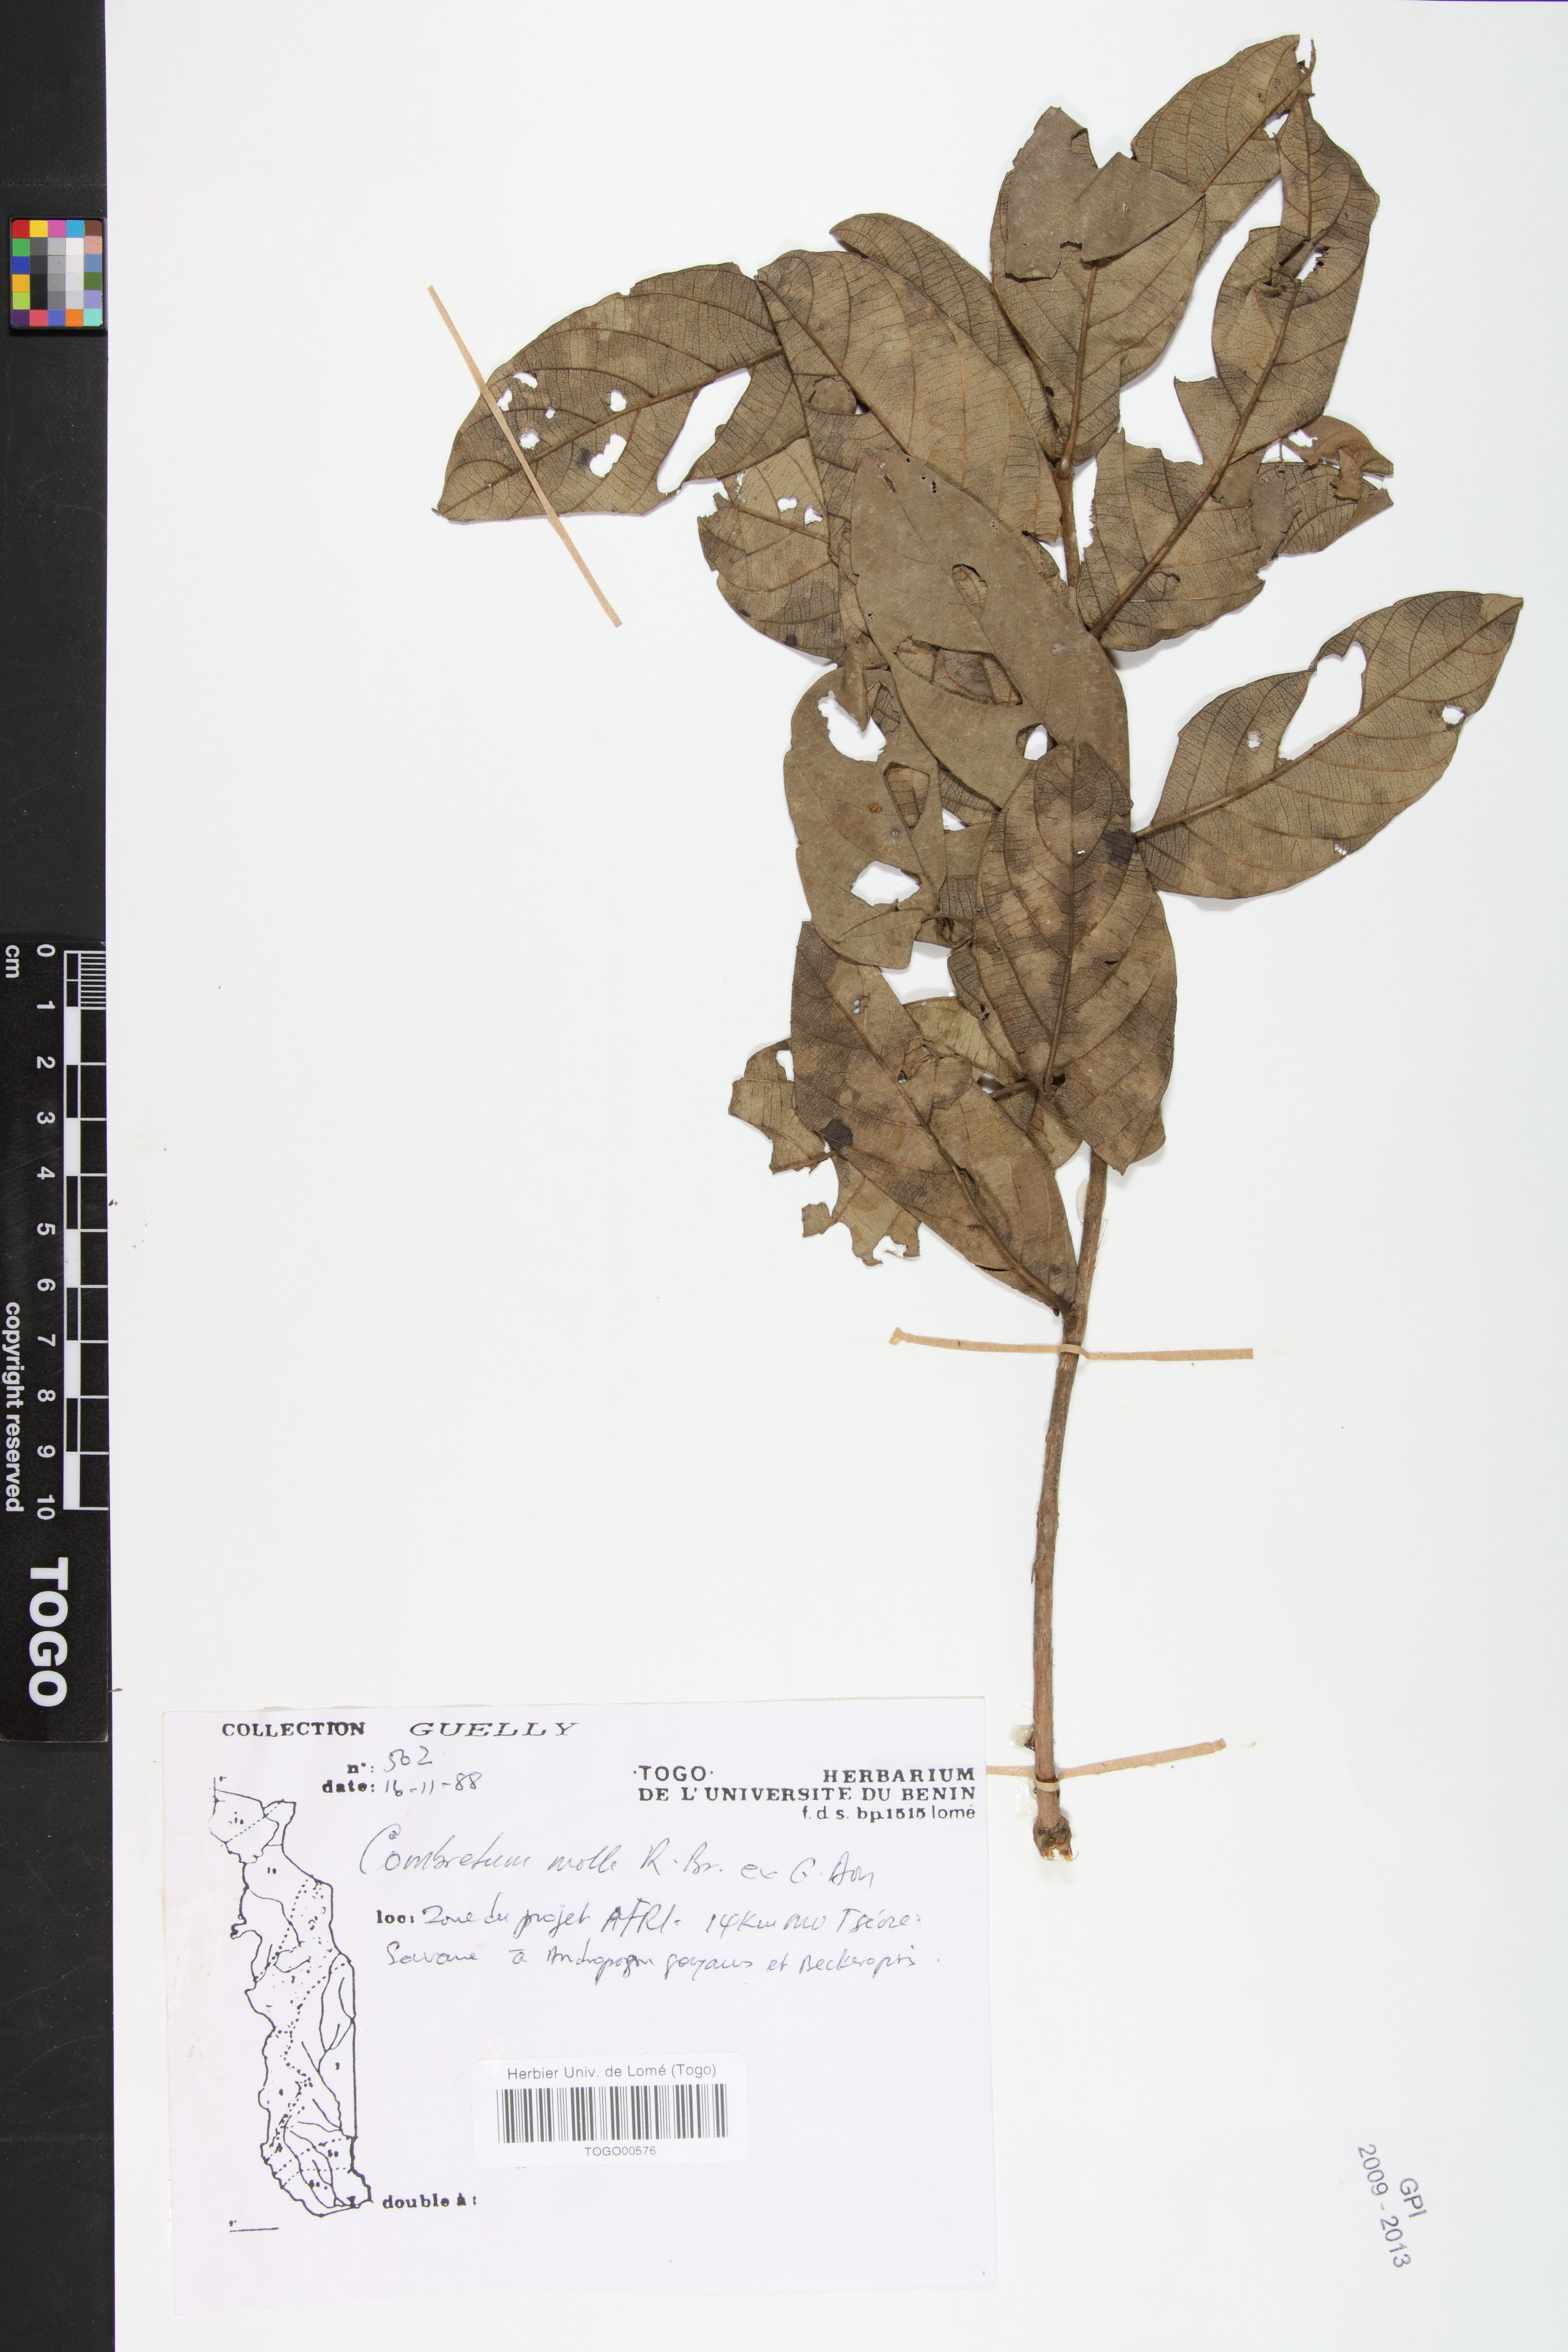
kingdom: Plantae
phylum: Tracheophyta
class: Magnoliopsida
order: Myrtales
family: Combretaceae
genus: Combretum
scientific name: Combretum molle
